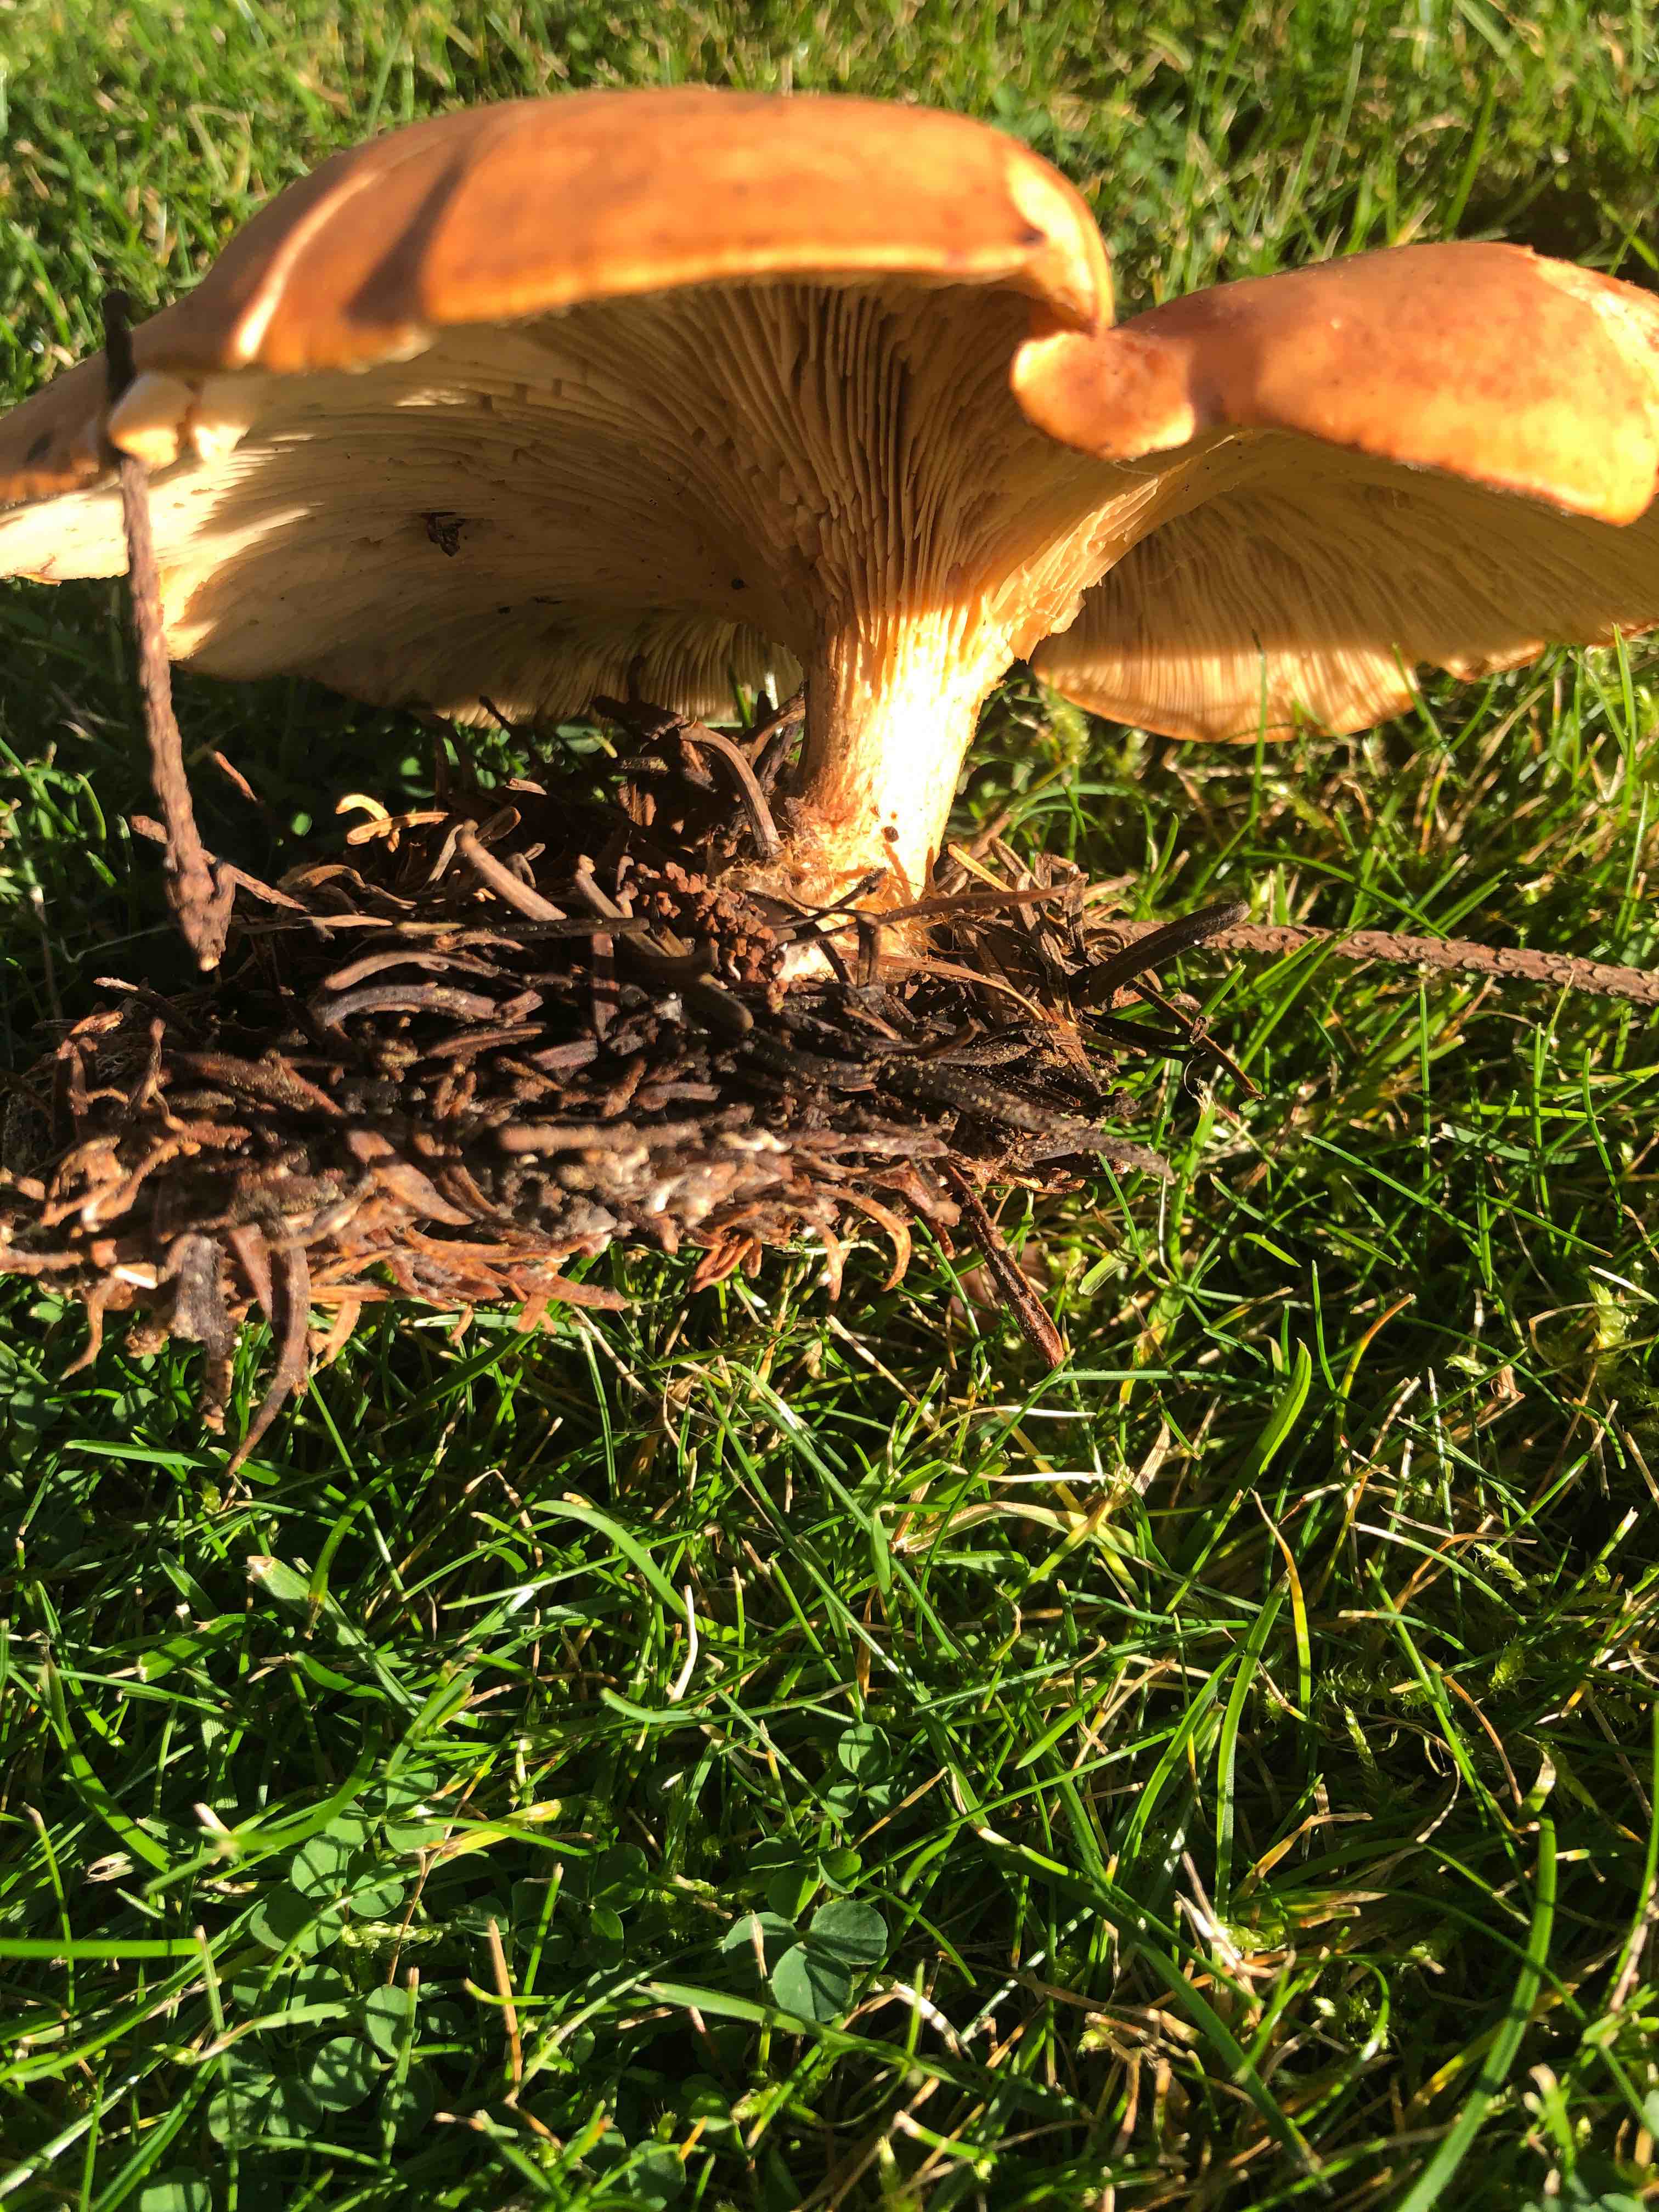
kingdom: Fungi
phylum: Basidiomycota
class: Agaricomycetes
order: Agaricales
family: Tricholomataceae
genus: Paralepista
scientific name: Paralepista flaccida
